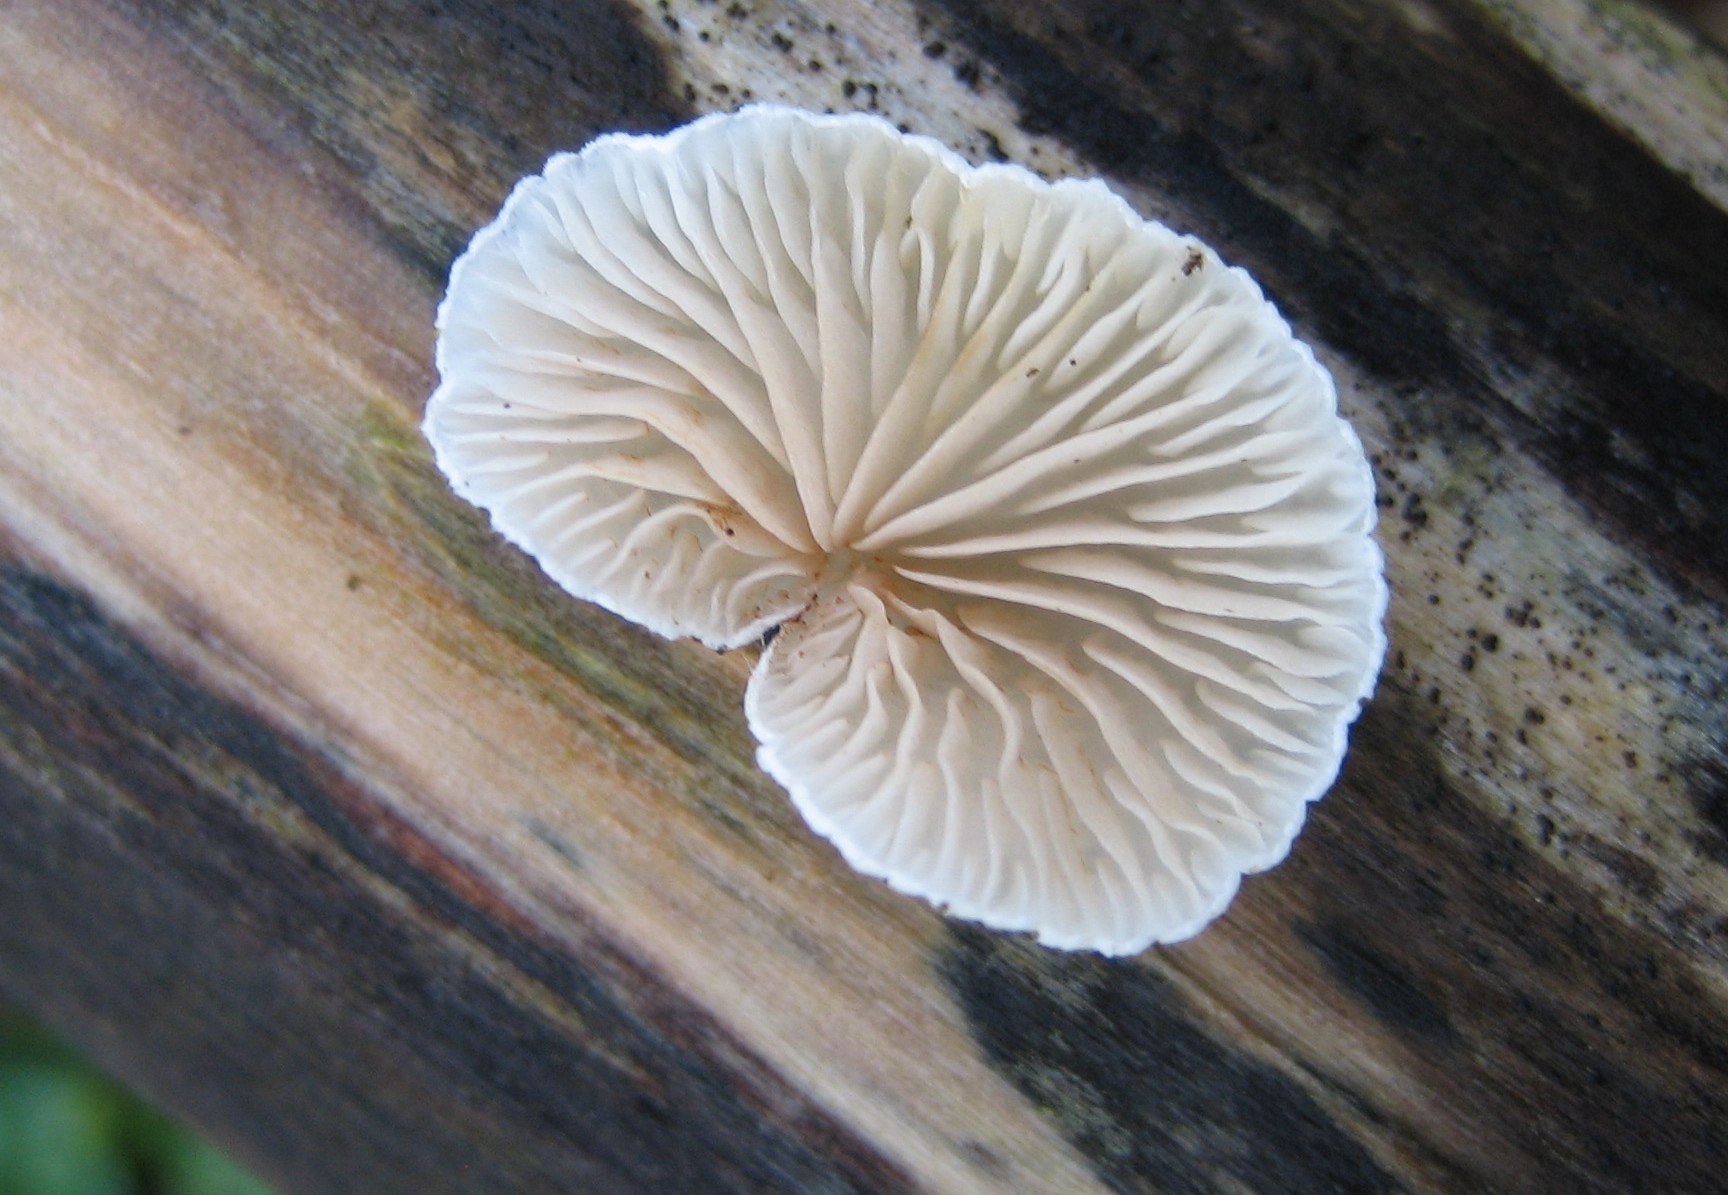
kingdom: Fungi
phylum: Basidiomycota
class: Agaricomycetes
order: Agaricales
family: Crepidotaceae
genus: Crepidotus
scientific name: Crepidotus
